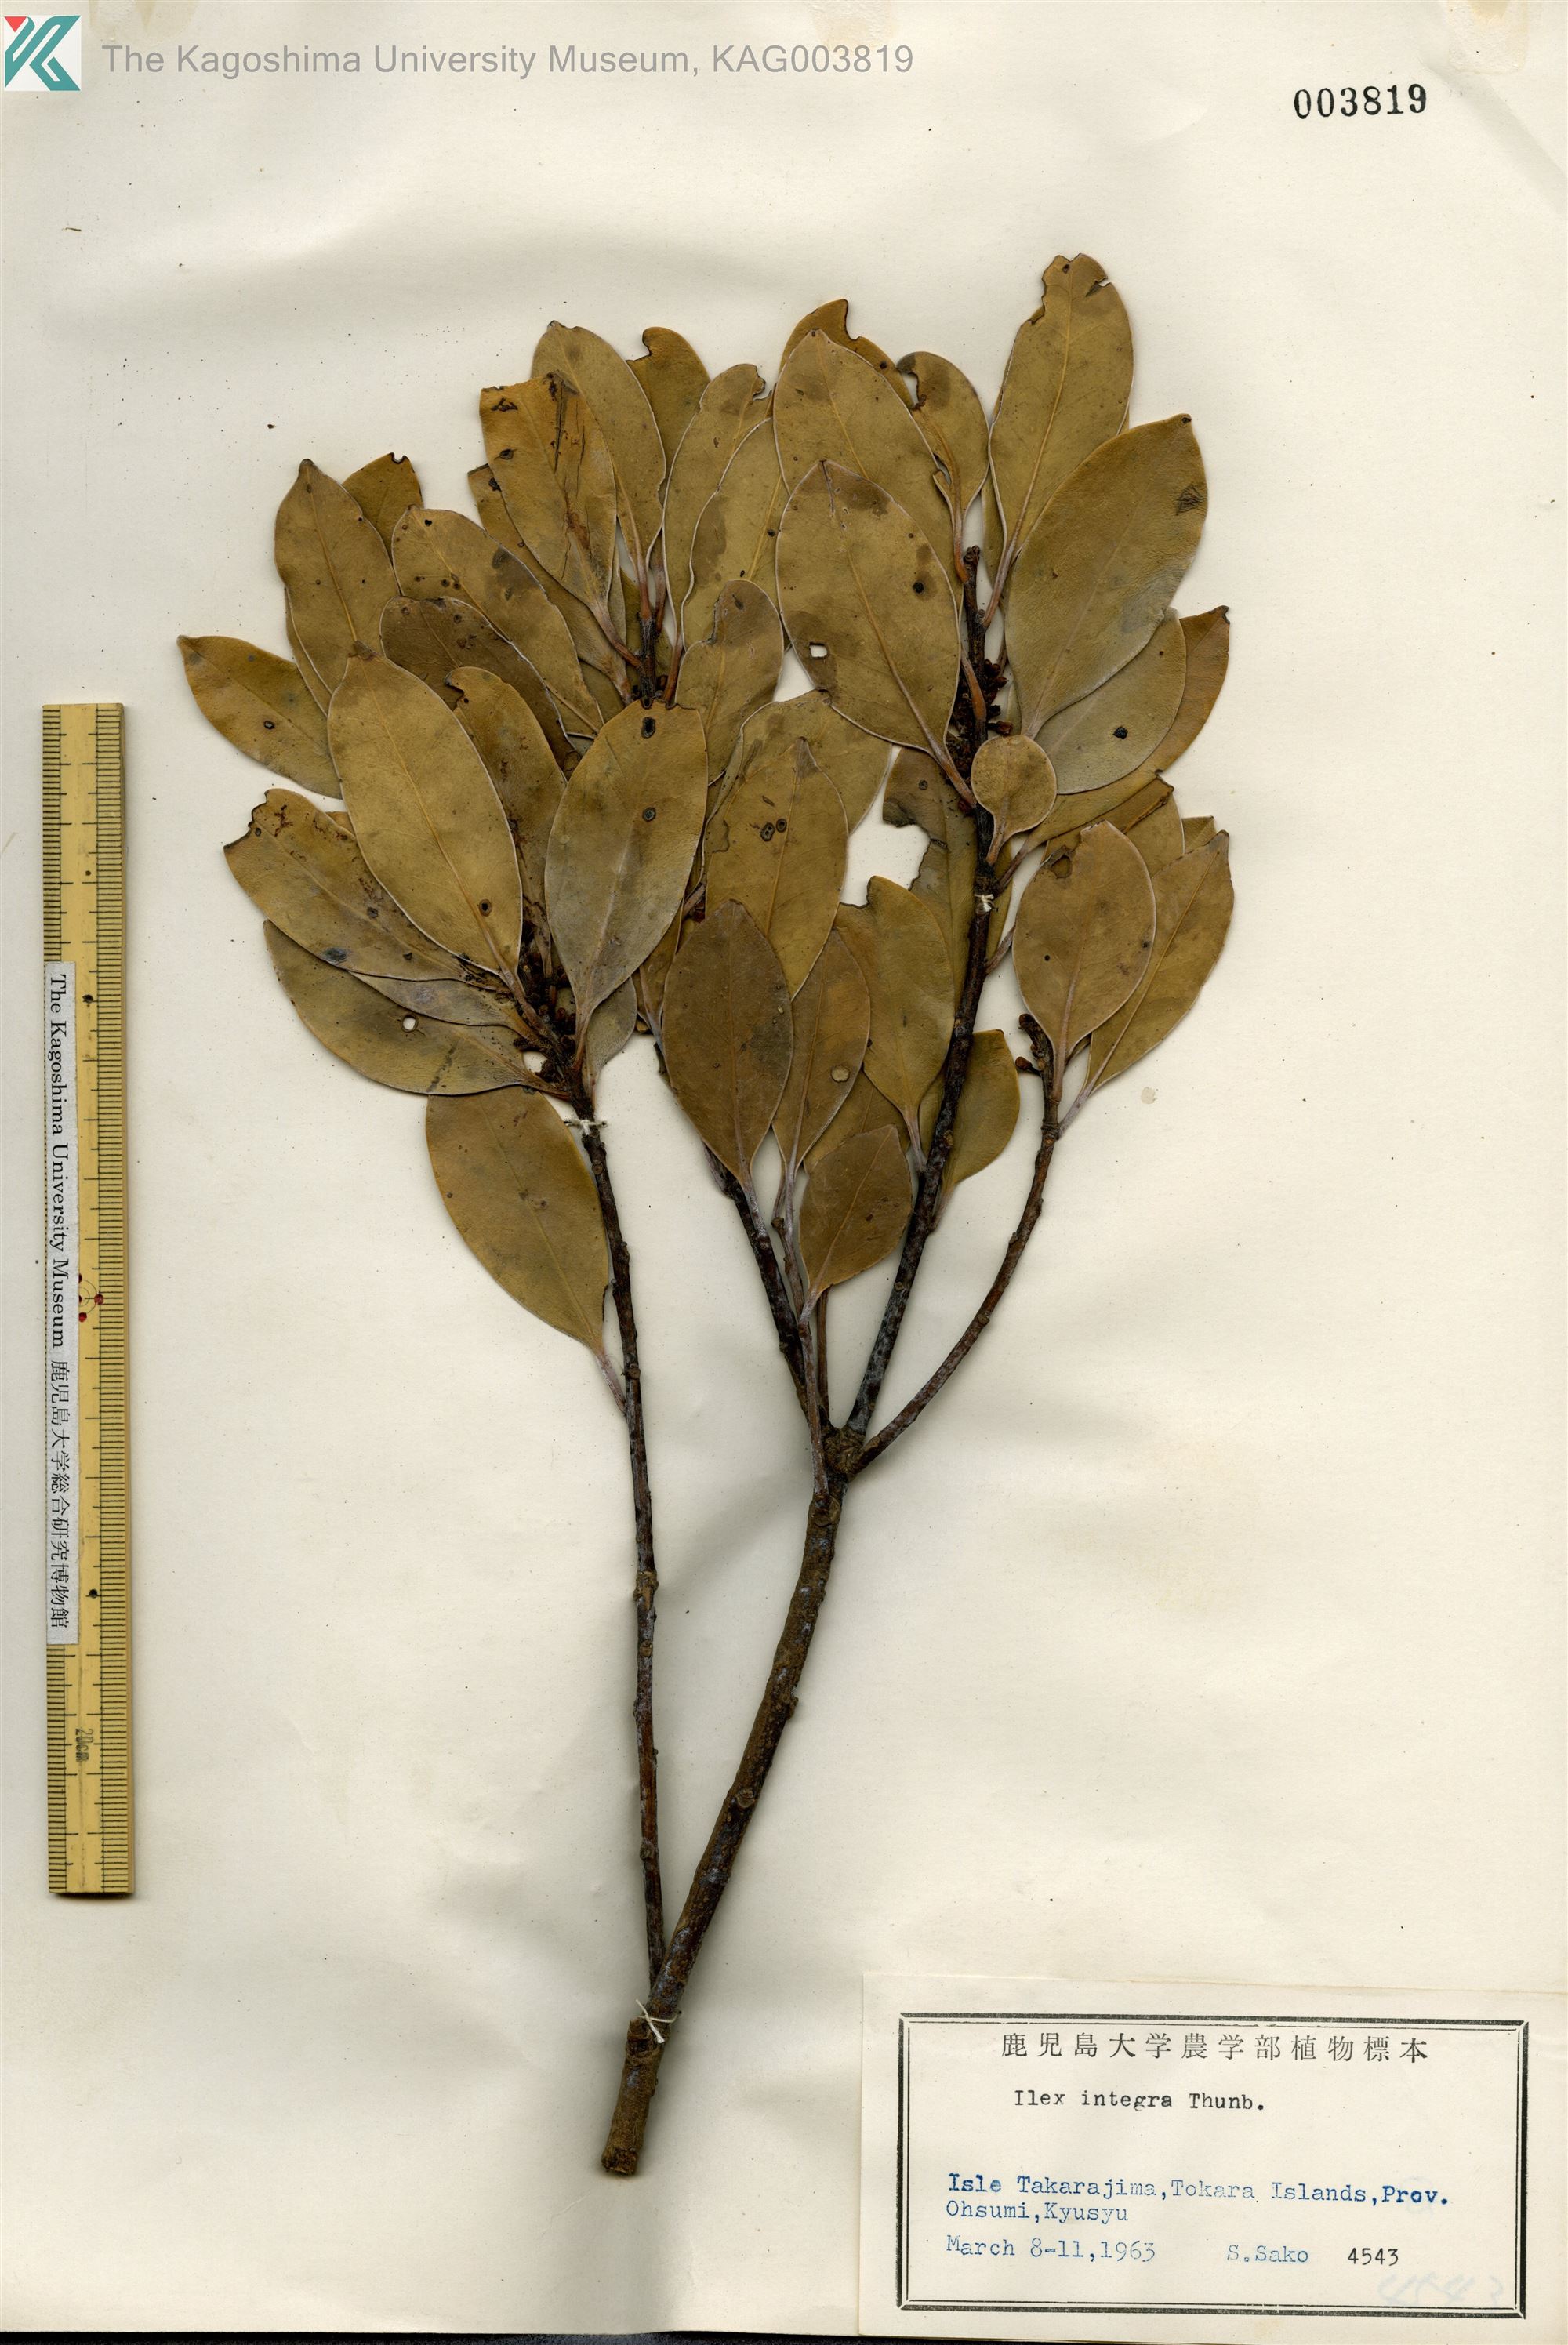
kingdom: Plantae
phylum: Tracheophyta
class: Magnoliopsida
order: Aquifoliales
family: Aquifoliaceae
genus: Ilex
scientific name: Ilex integra
